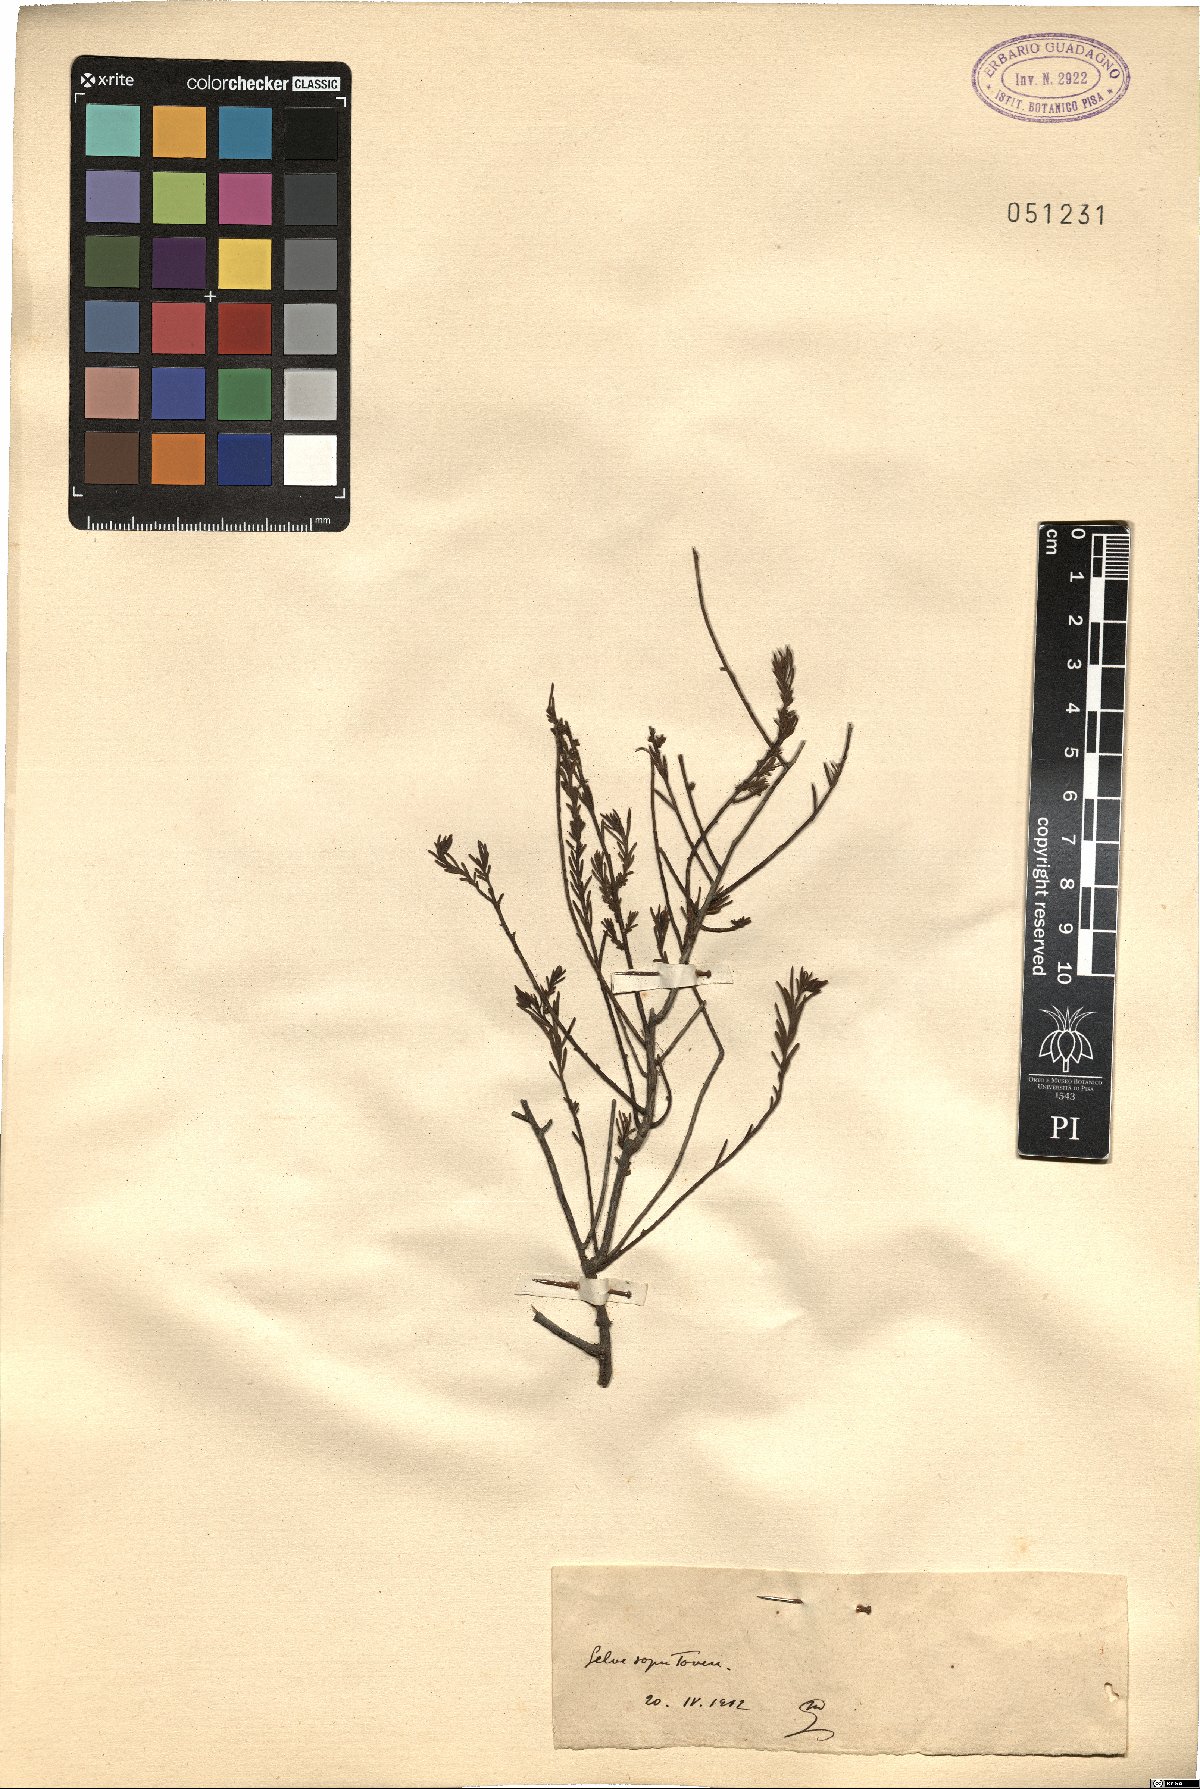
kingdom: Plantae
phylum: Tracheophyta
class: Magnoliopsida
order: Malvales
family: Cistaceae
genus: Helianthemum
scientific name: Helianthemum
